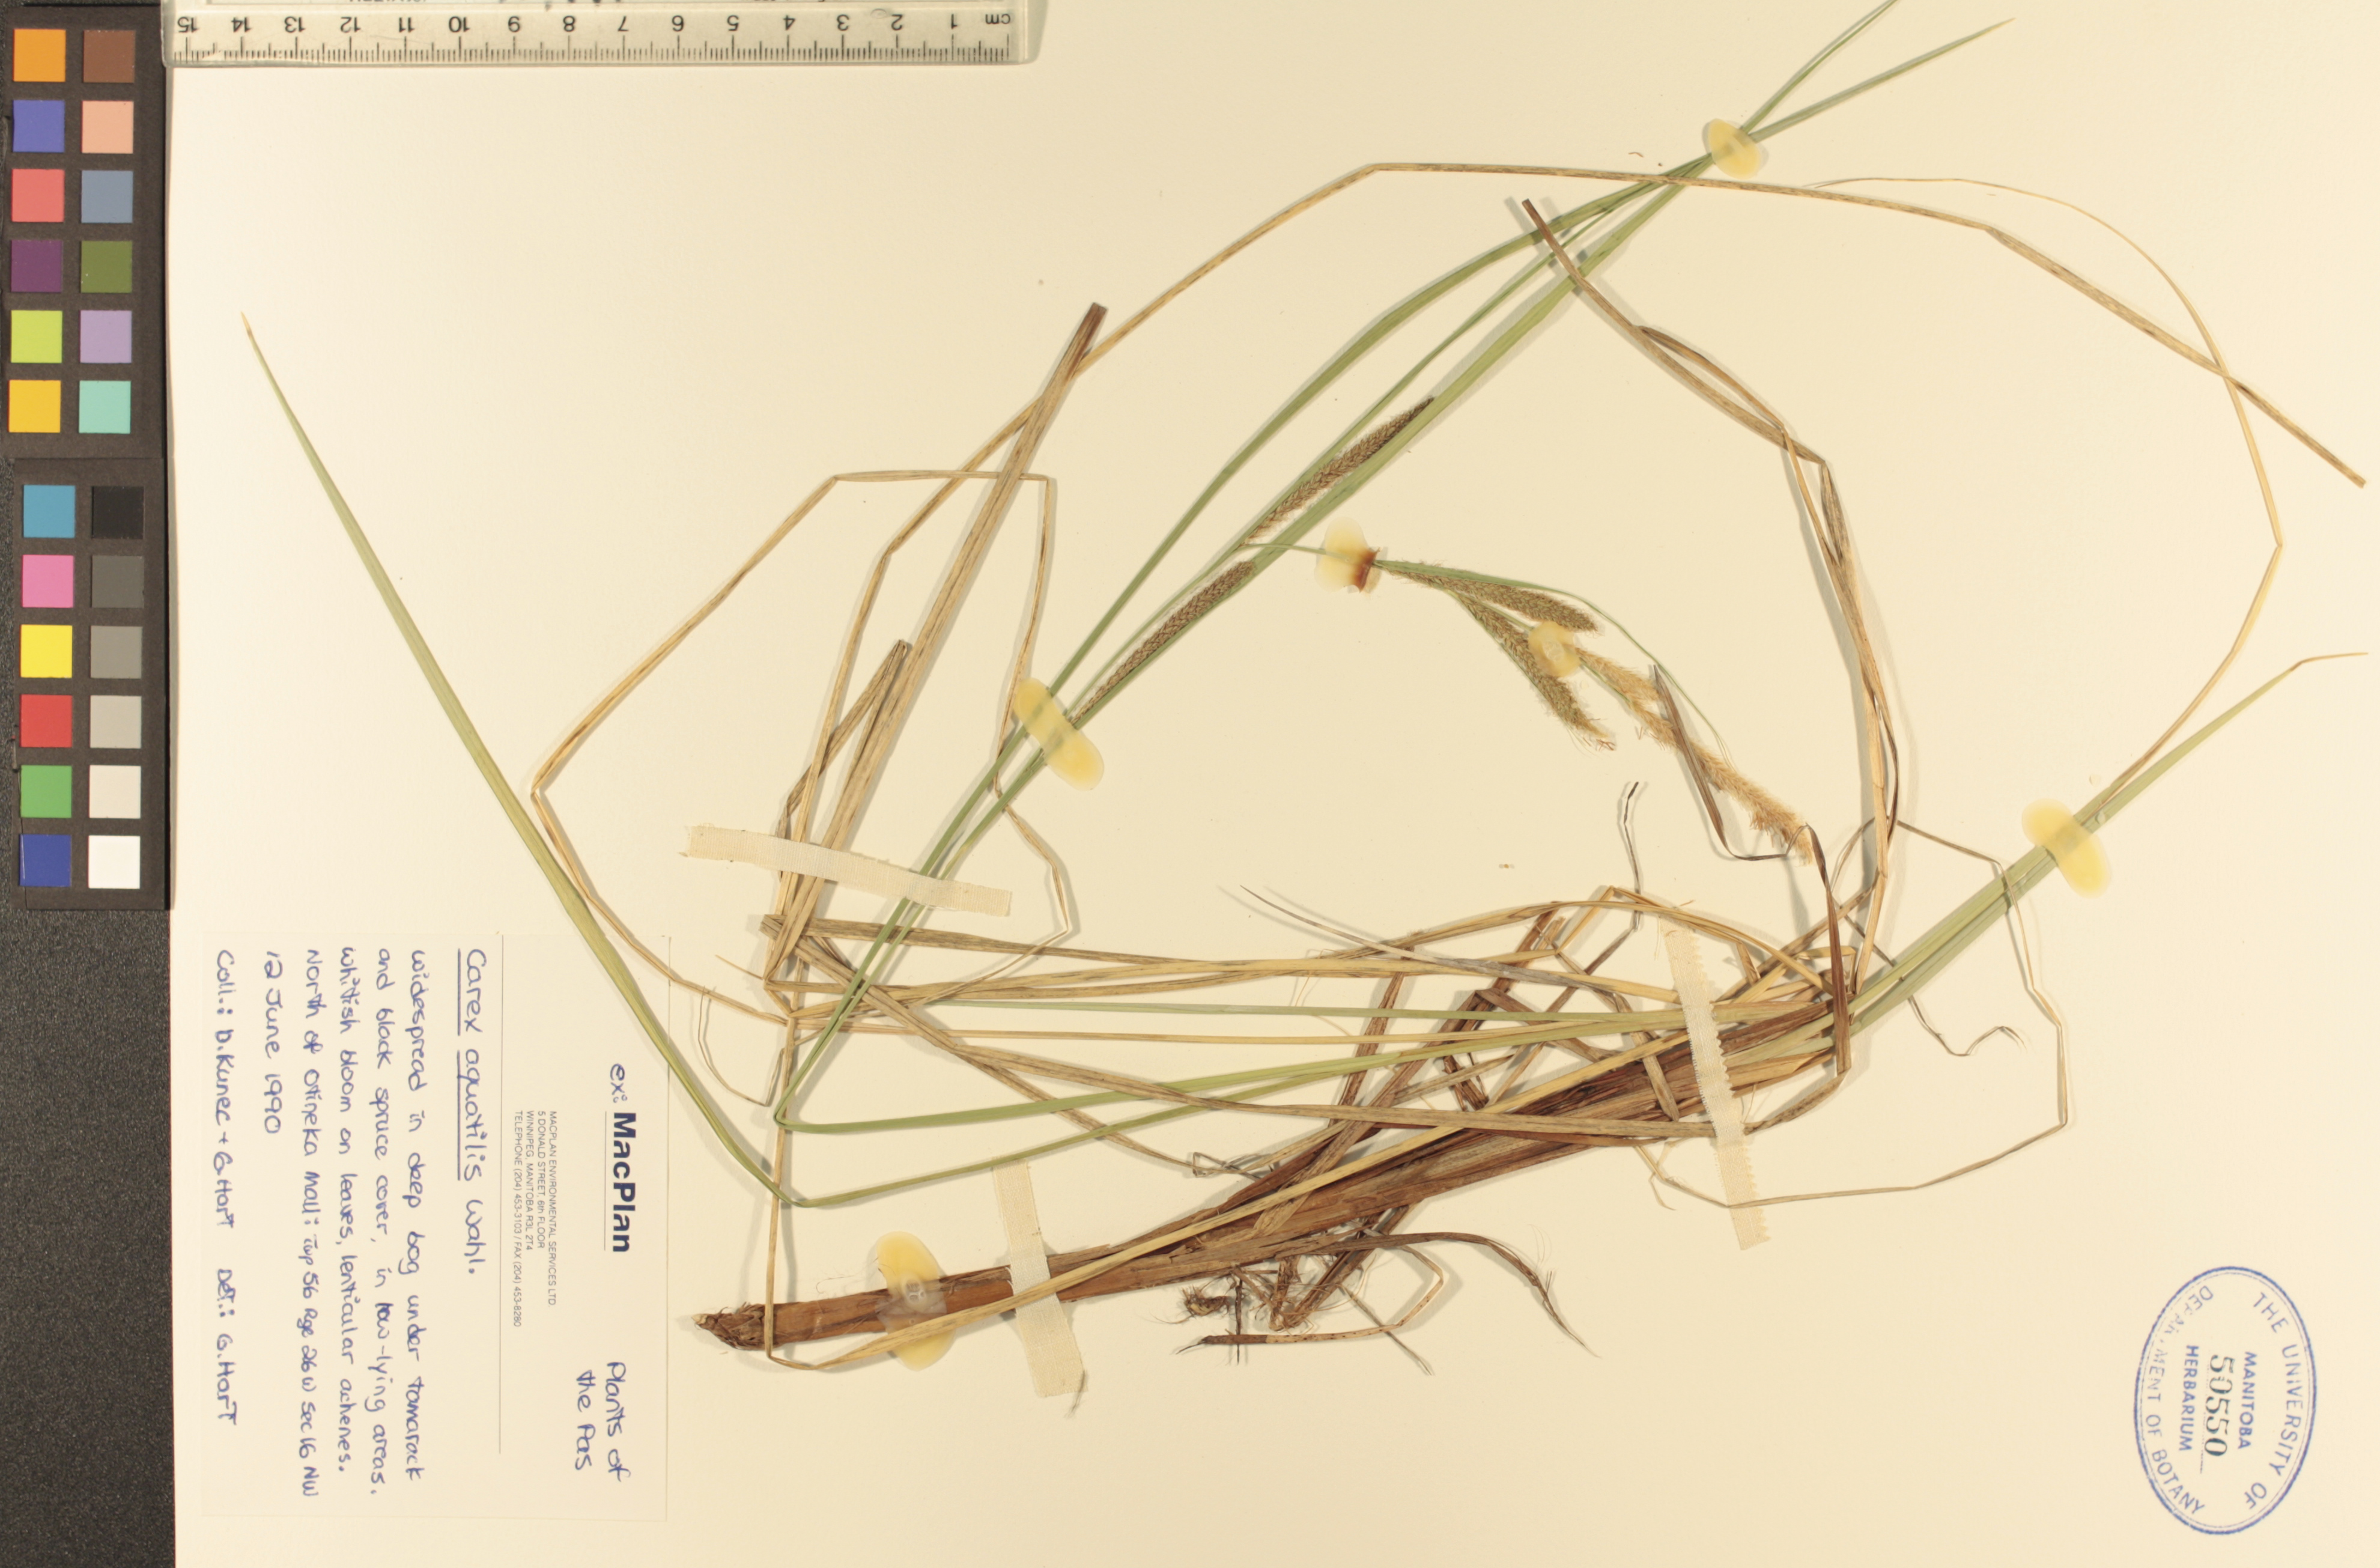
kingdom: Plantae
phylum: Tracheophyta
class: Liliopsida
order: Poales
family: Cyperaceae
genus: Carex
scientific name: Carex aquatilis
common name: Water sedge
